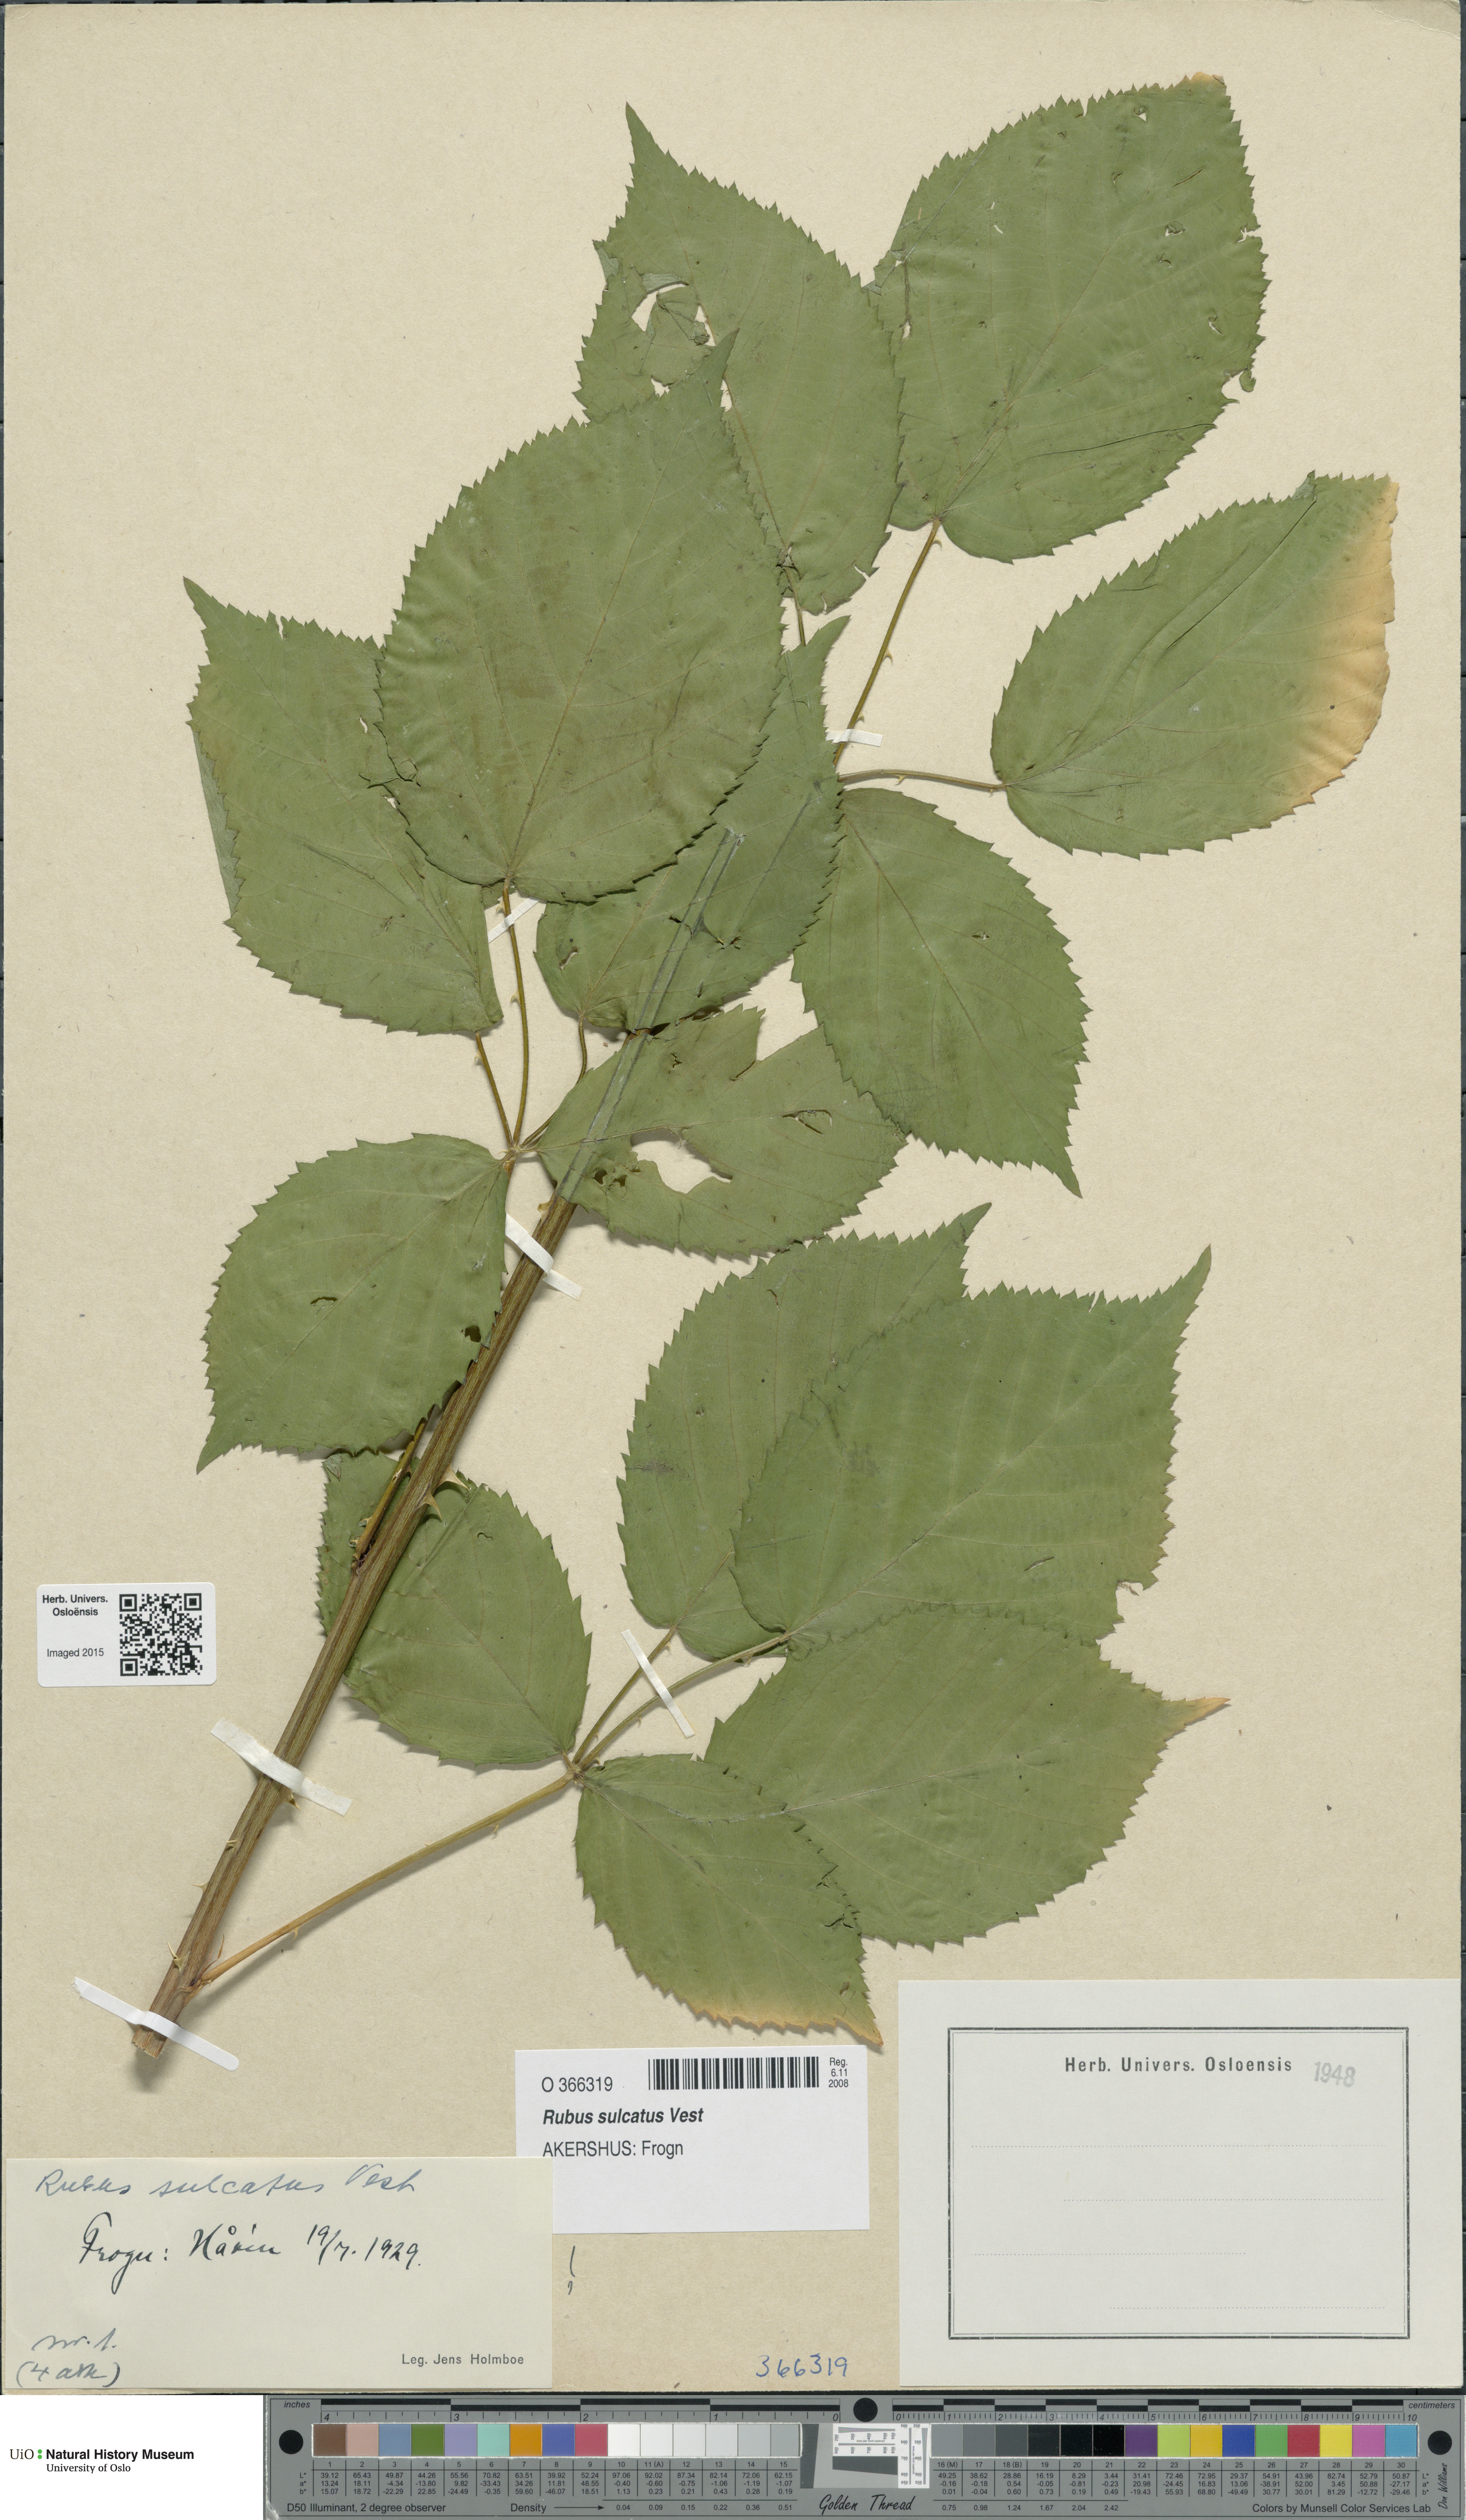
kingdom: Plantae
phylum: Tracheophyta
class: Magnoliopsida
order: Rosales
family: Rosaceae
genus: Rubus
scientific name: Rubus sulcatus
